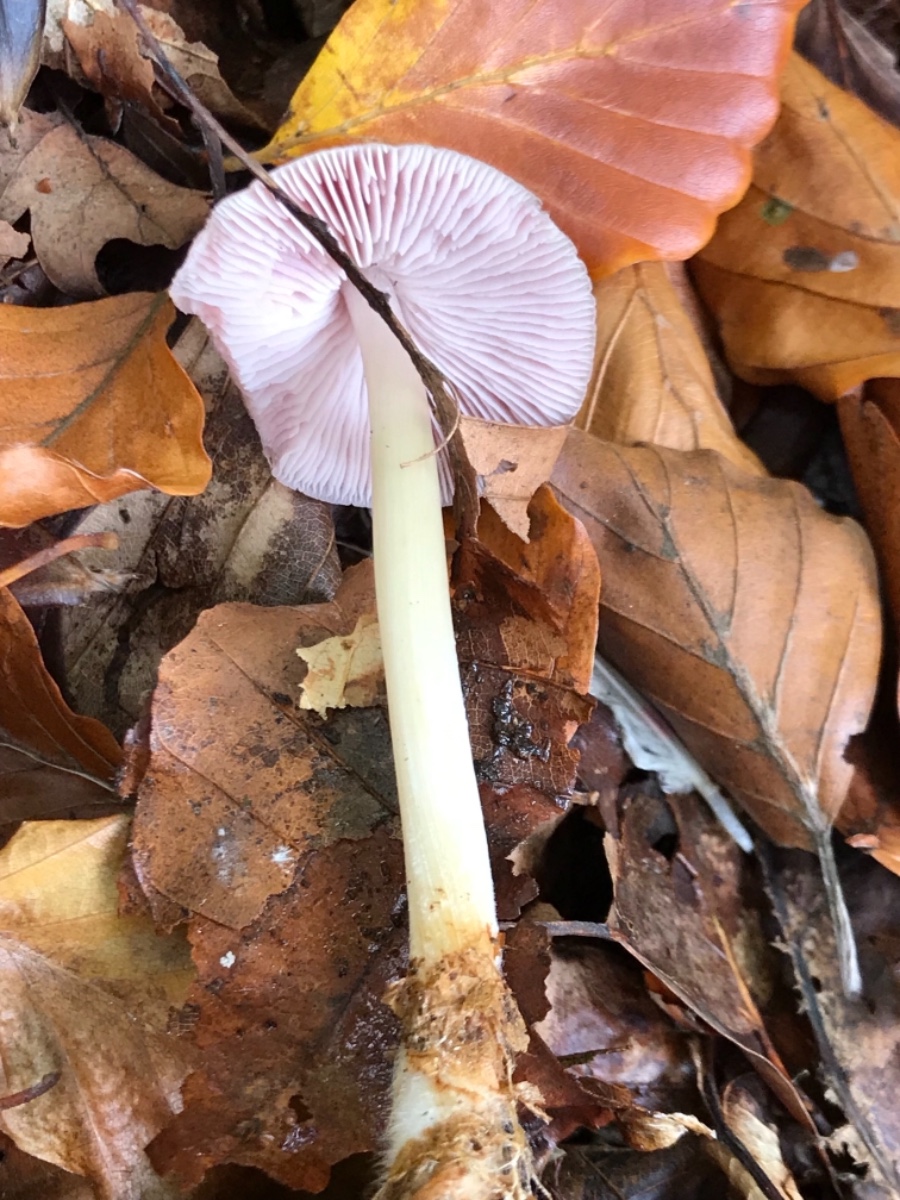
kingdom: Fungi
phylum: Basidiomycota
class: Agaricomycetes
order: Agaricales
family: Mycenaceae
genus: Mycena
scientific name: Mycena rosea
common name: rosa huesvamp
